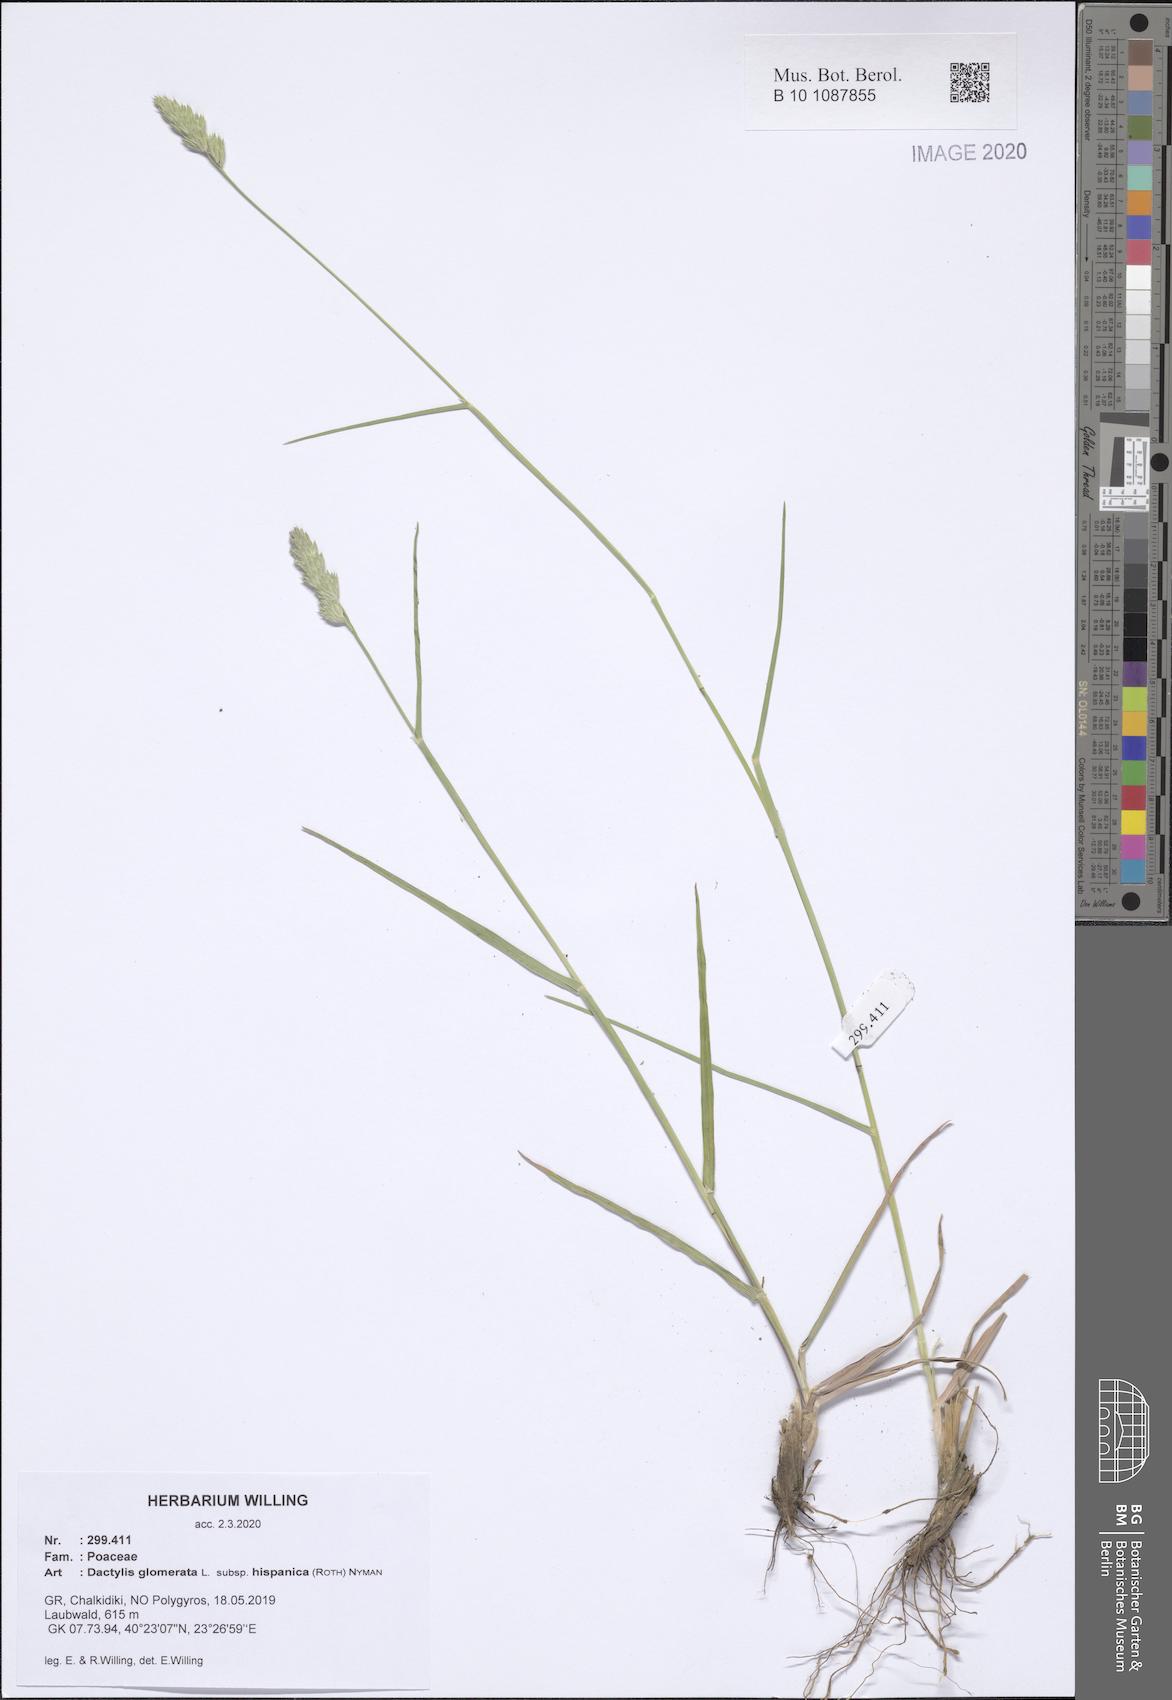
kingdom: Plantae
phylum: Tracheophyta
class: Liliopsida
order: Poales
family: Poaceae
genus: Dactylis
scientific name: Dactylis glomerata
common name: Orchardgrass
